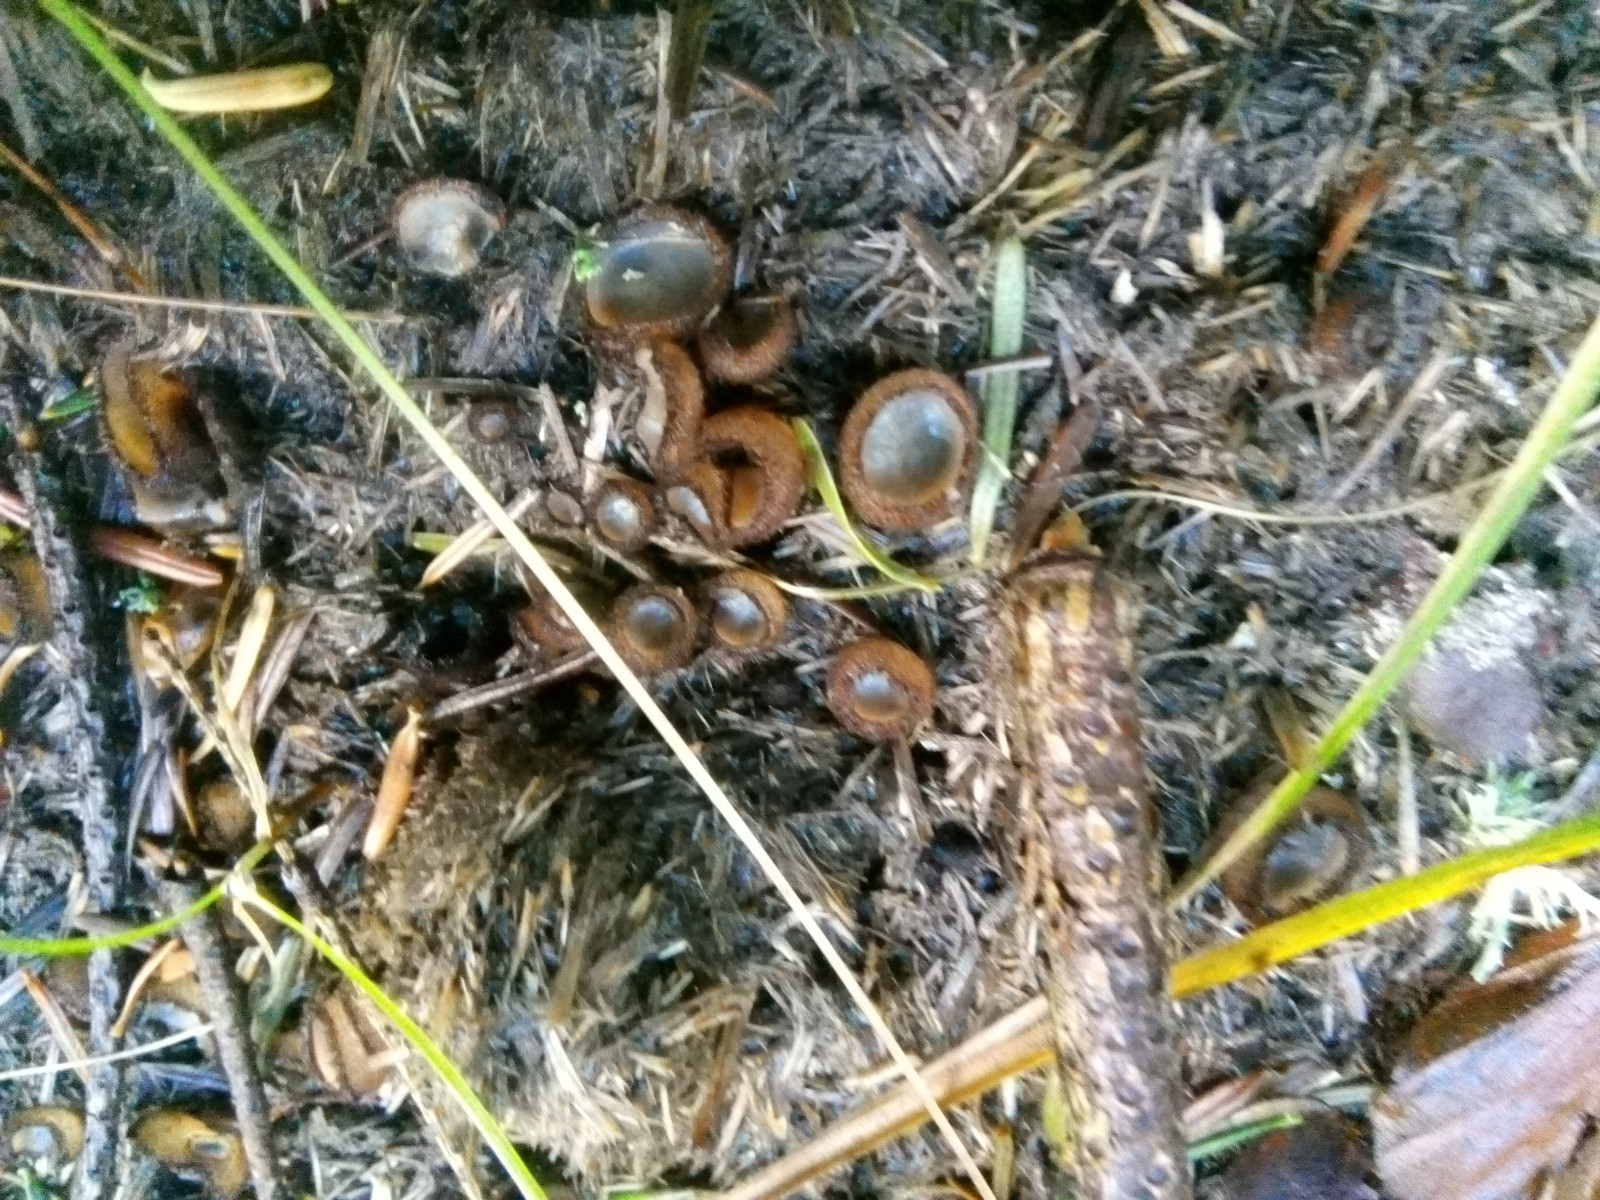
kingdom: Fungi
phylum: Ascomycota
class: Pezizomycetes
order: Pezizales
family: Pyronemataceae
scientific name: Pyronemataceae
